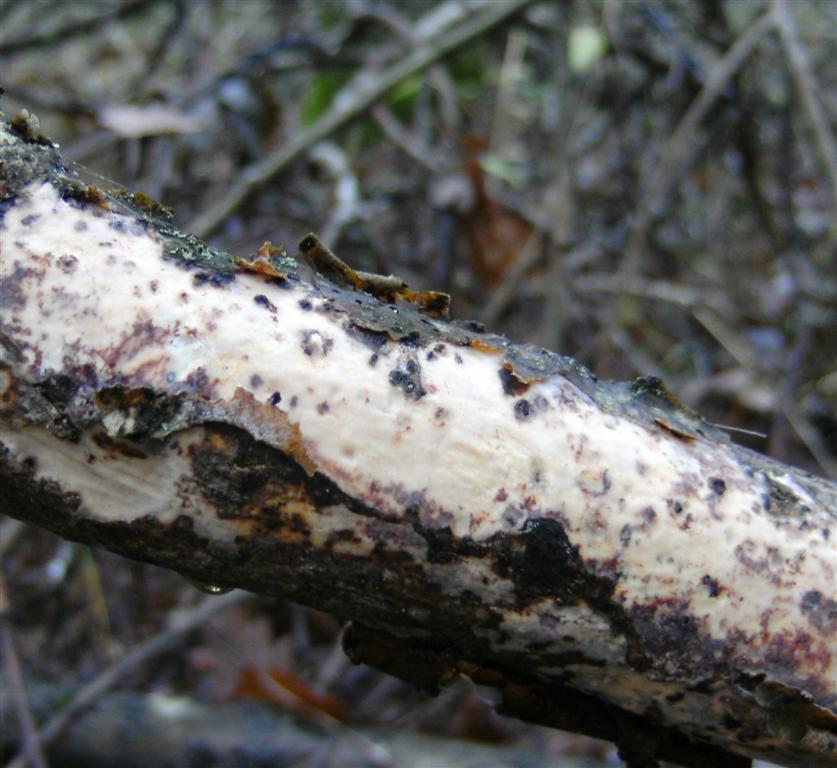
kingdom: Fungi
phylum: Basidiomycota
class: Agaricomycetes
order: Corticiales
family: Vuilleminiaceae
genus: Vuilleminia
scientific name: Vuilleminia comedens
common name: almindelig barksprænger
